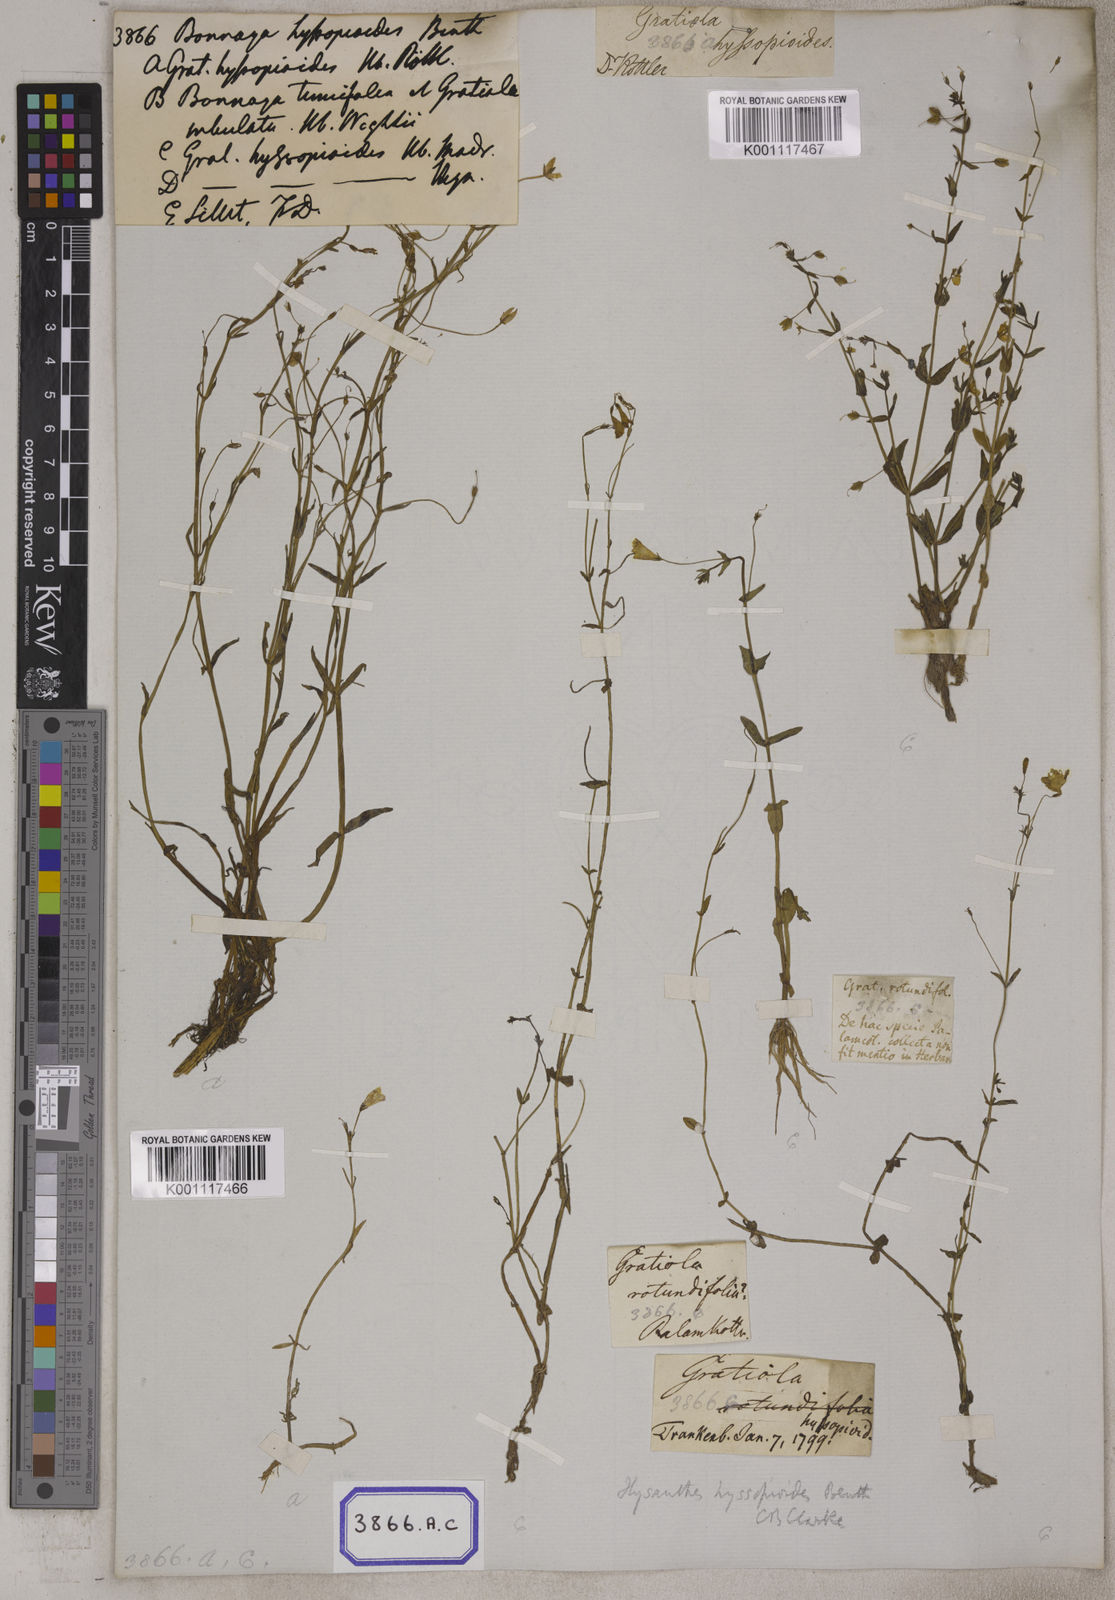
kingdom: Plantae
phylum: Tracheophyta
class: Magnoliopsida
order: Lamiales
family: Linderniaceae
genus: Bonnaya
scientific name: Bonnaya
